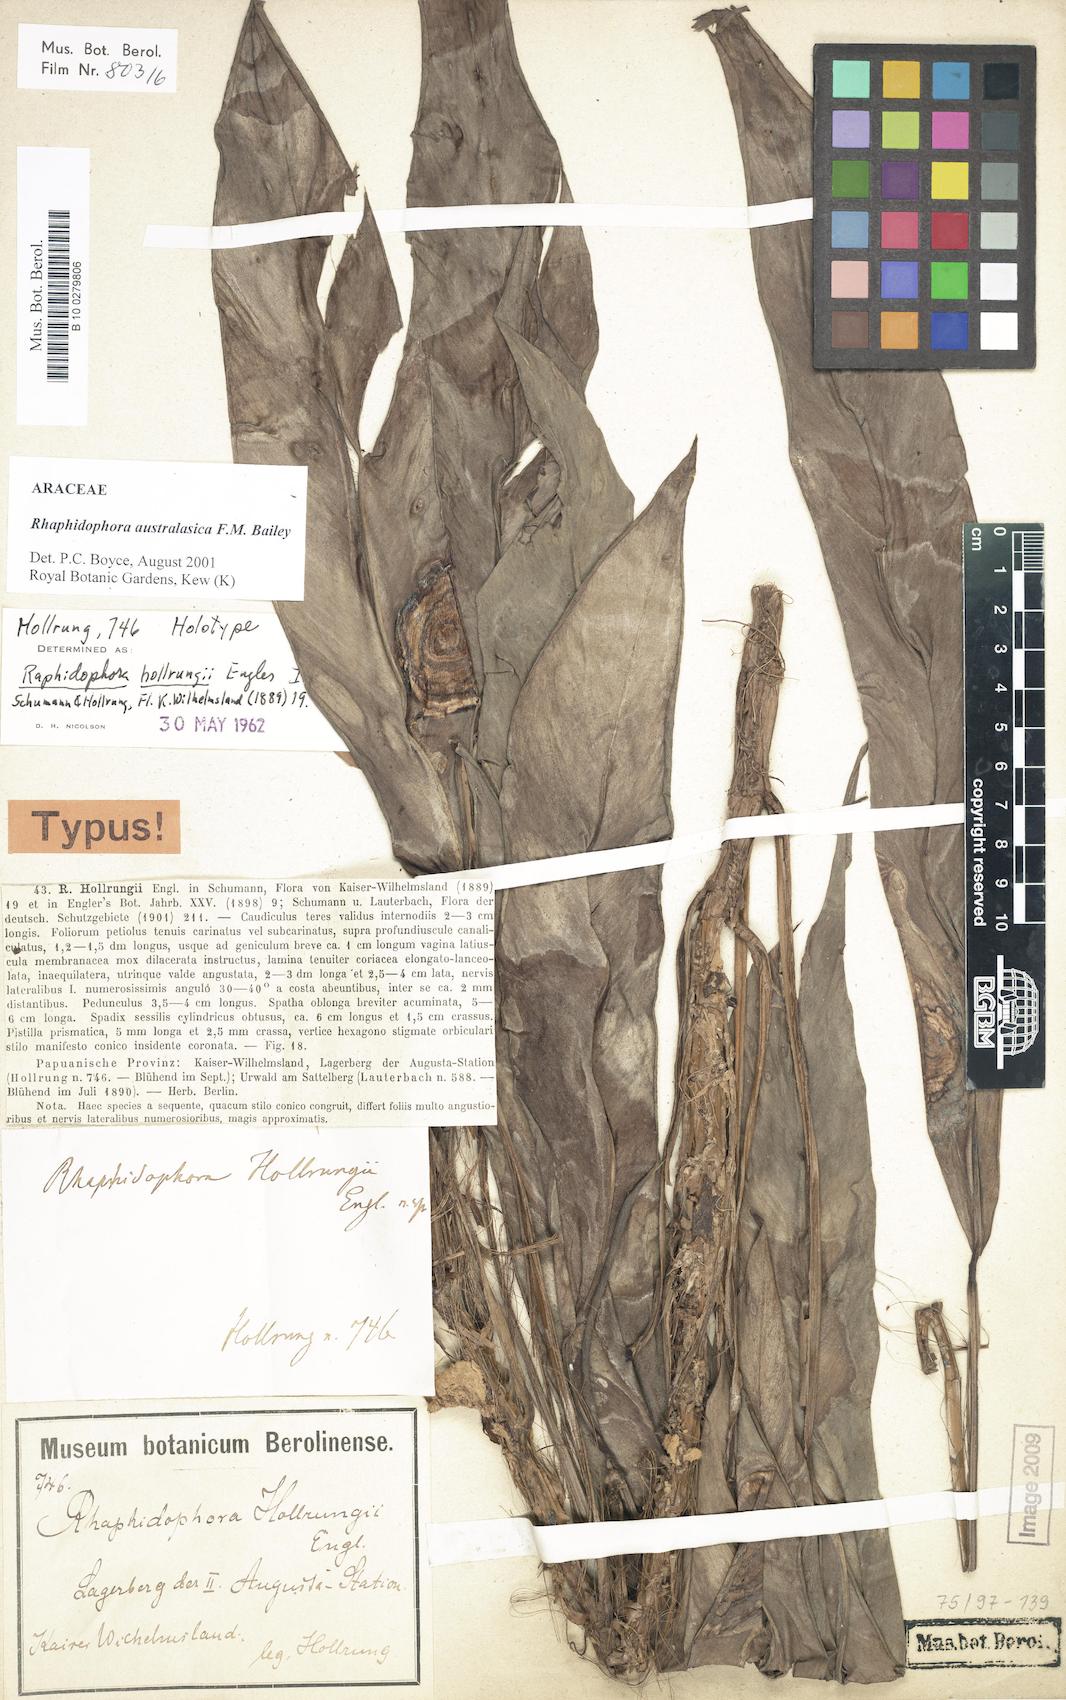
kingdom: Plantae
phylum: Tracheophyta
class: Liliopsida
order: Alismatales
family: Araceae
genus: Rhaphidophora
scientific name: Rhaphidophora australasica
